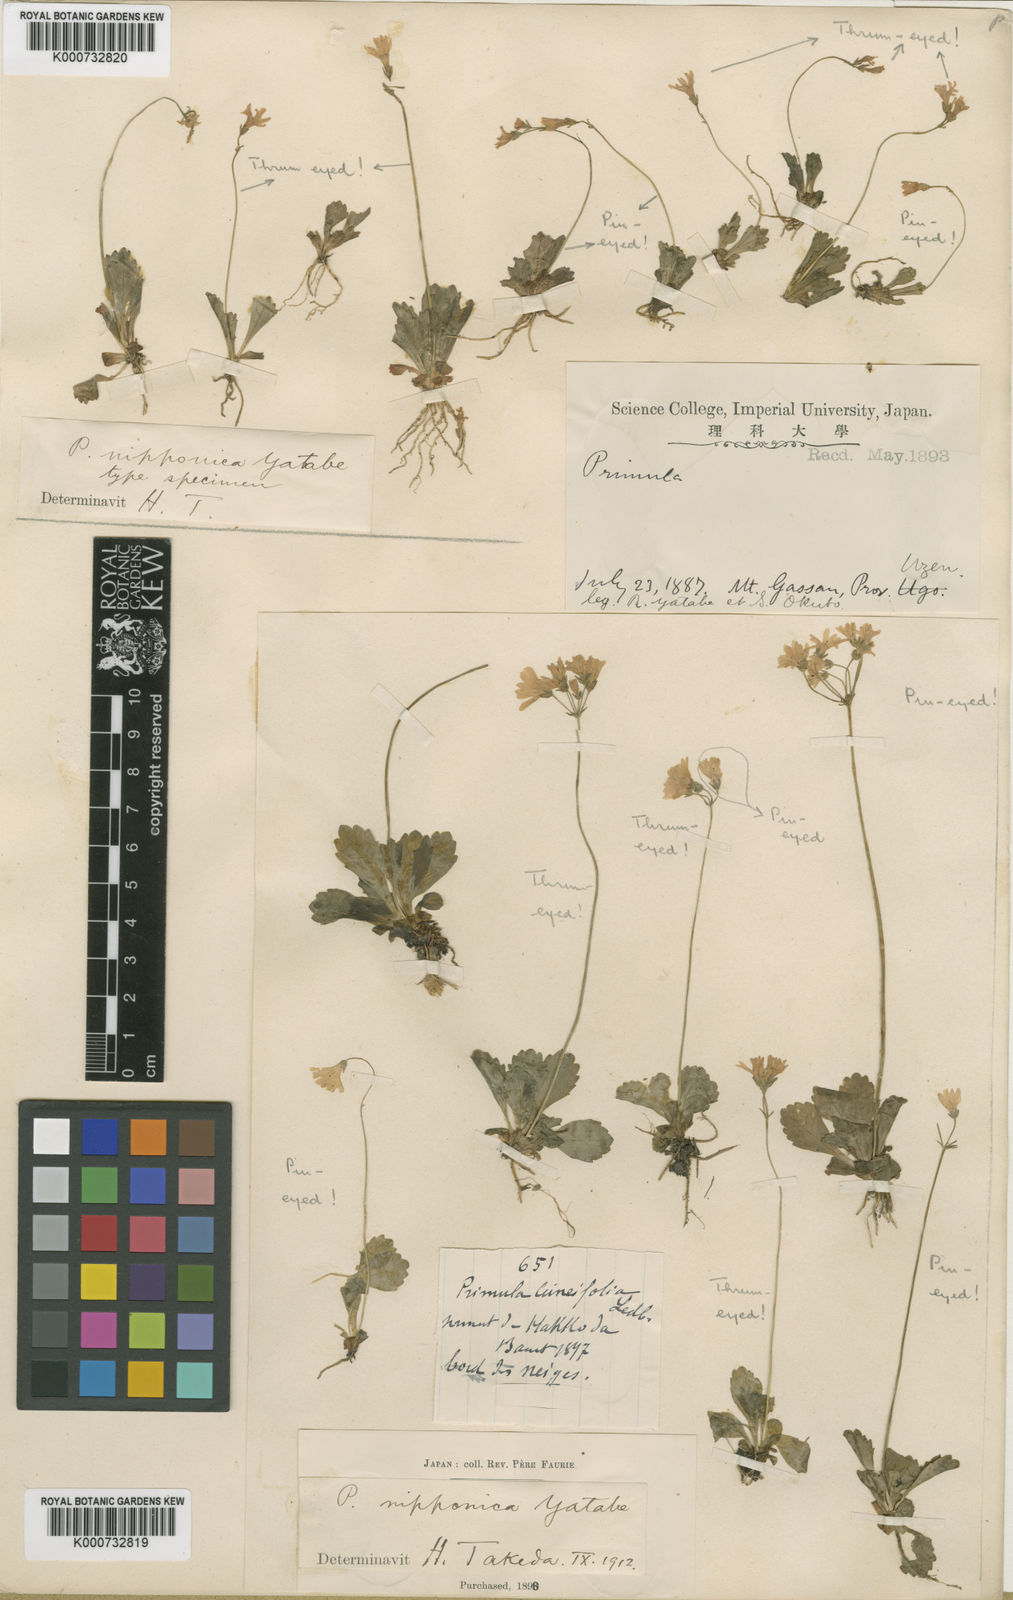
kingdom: Plantae
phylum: Tracheophyta
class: Magnoliopsida
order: Ericales
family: Primulaceae
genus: Primula
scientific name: Primula nipponica
